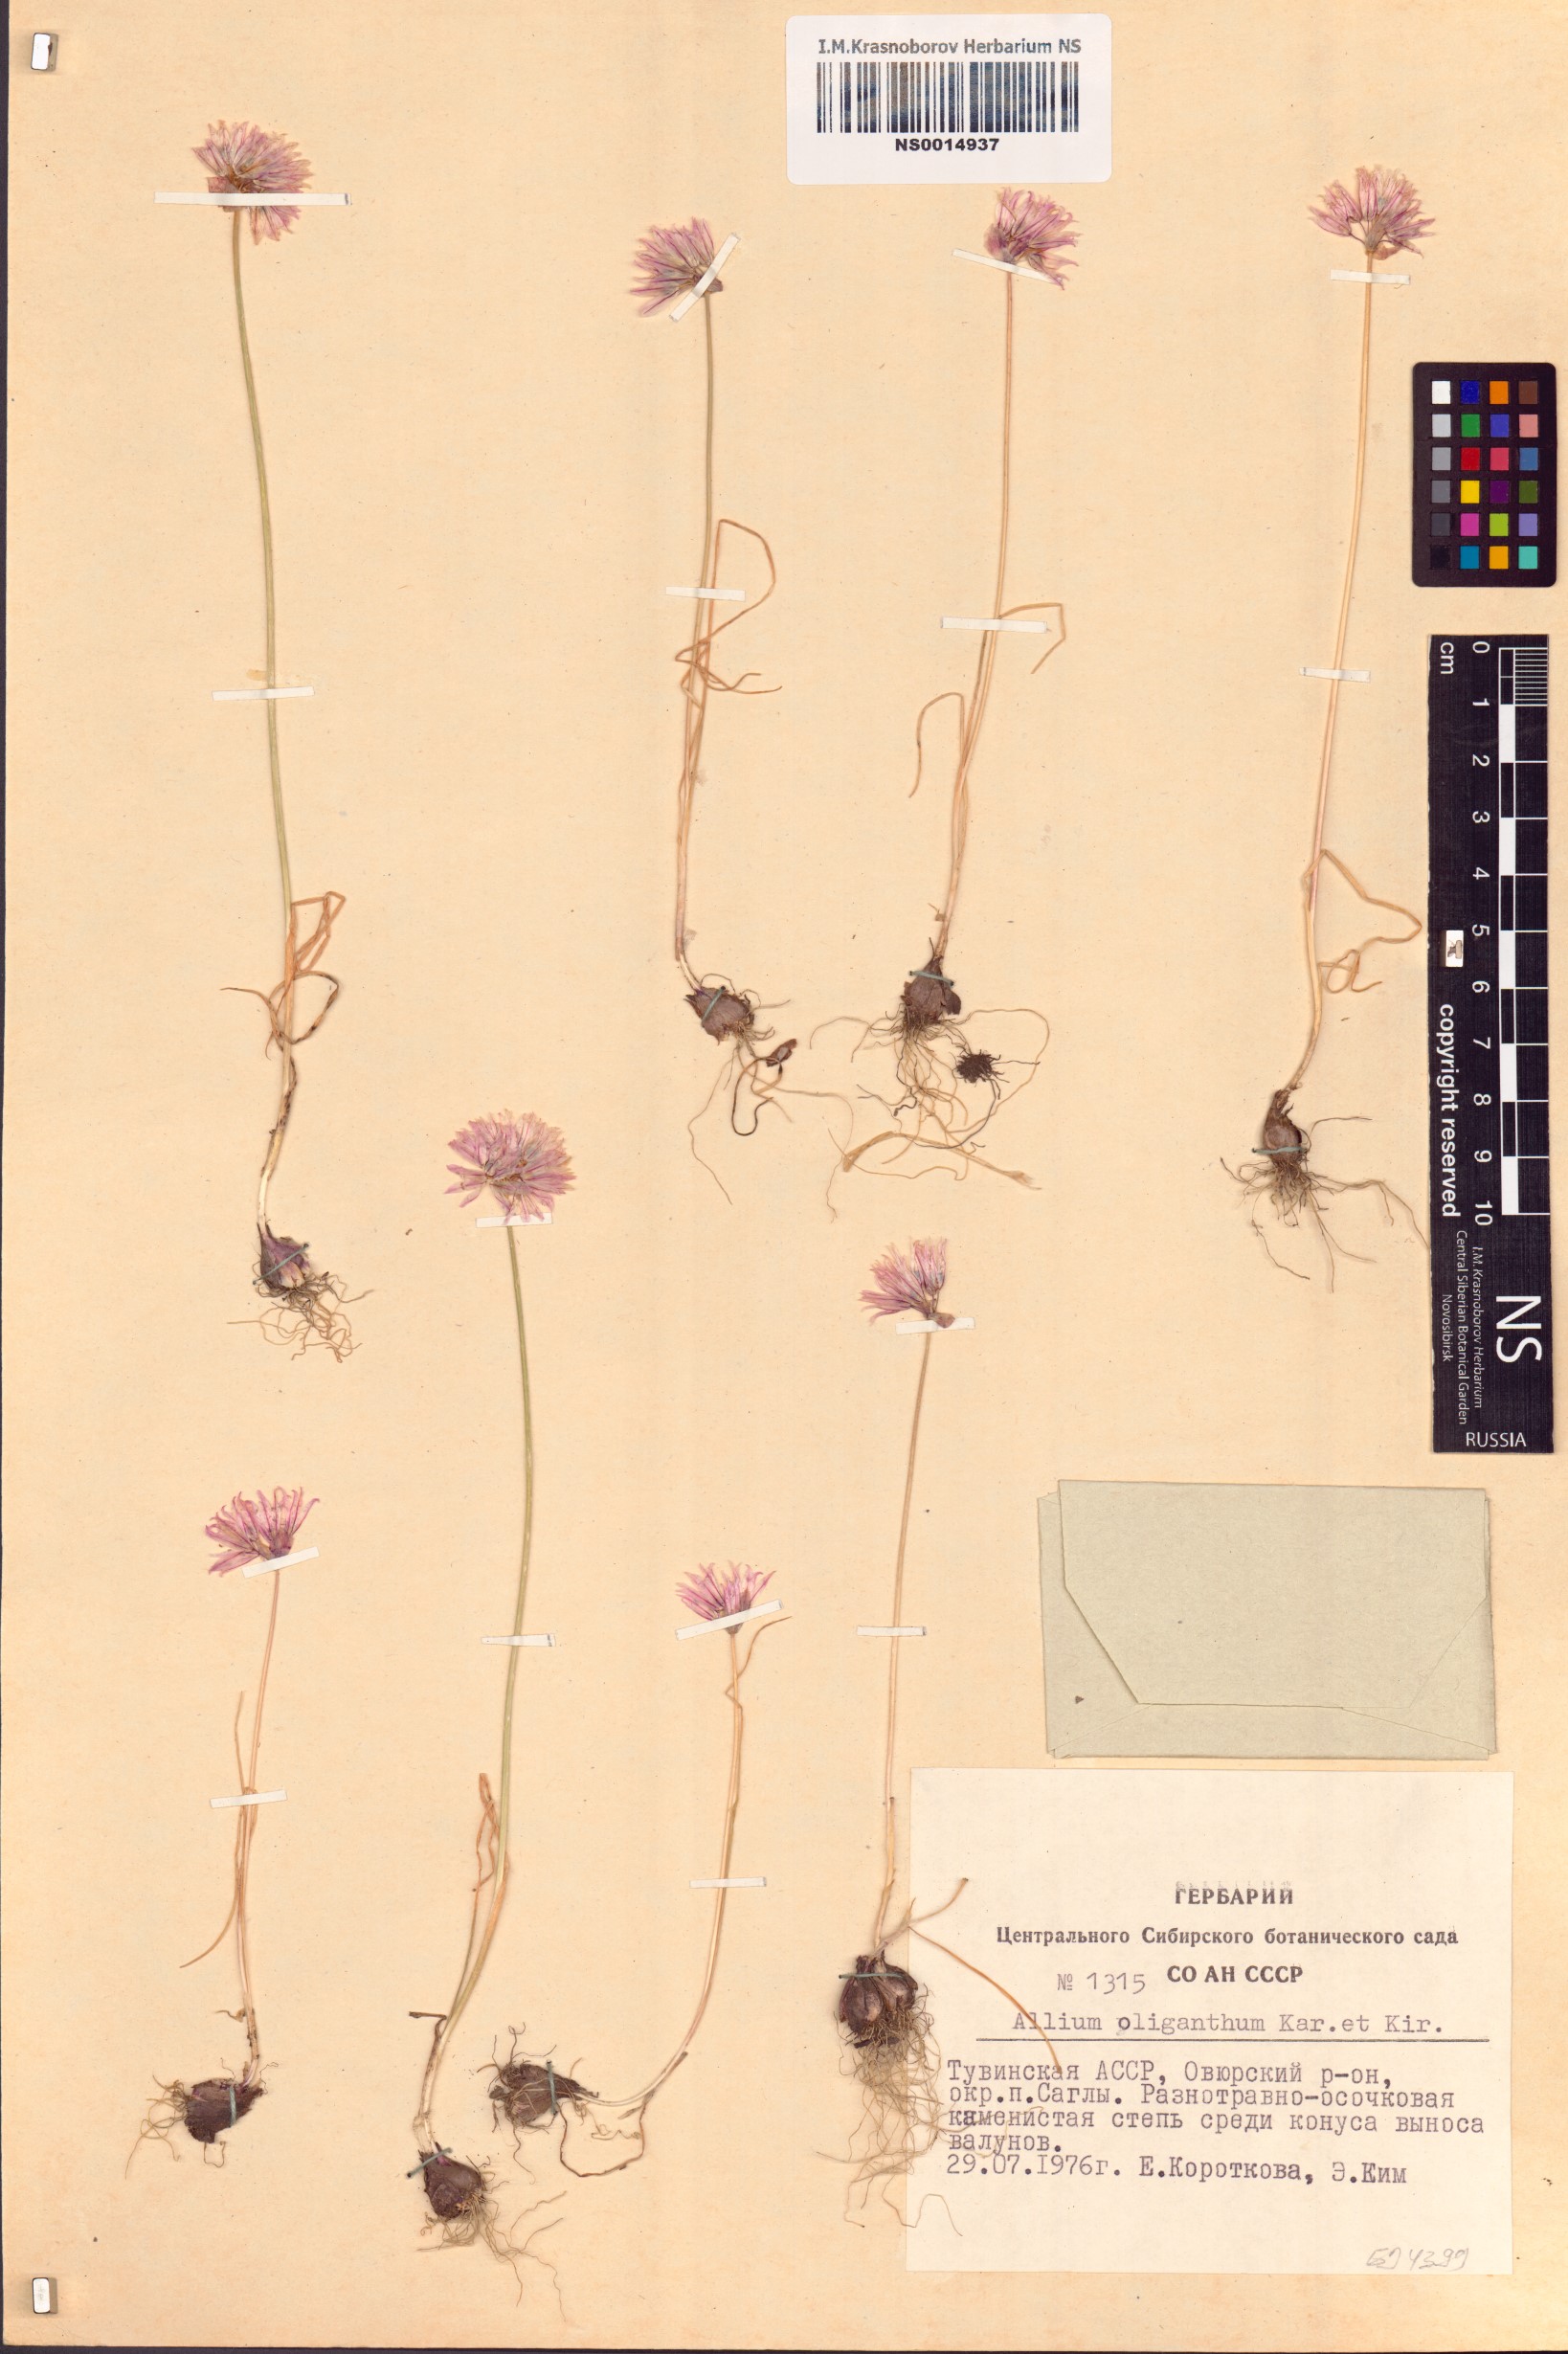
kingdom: Plantae
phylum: Tracheophyta
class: Liliopsida
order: Asparagales
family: Amaryllidaceae
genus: Allium
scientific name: Allium oliganthum
